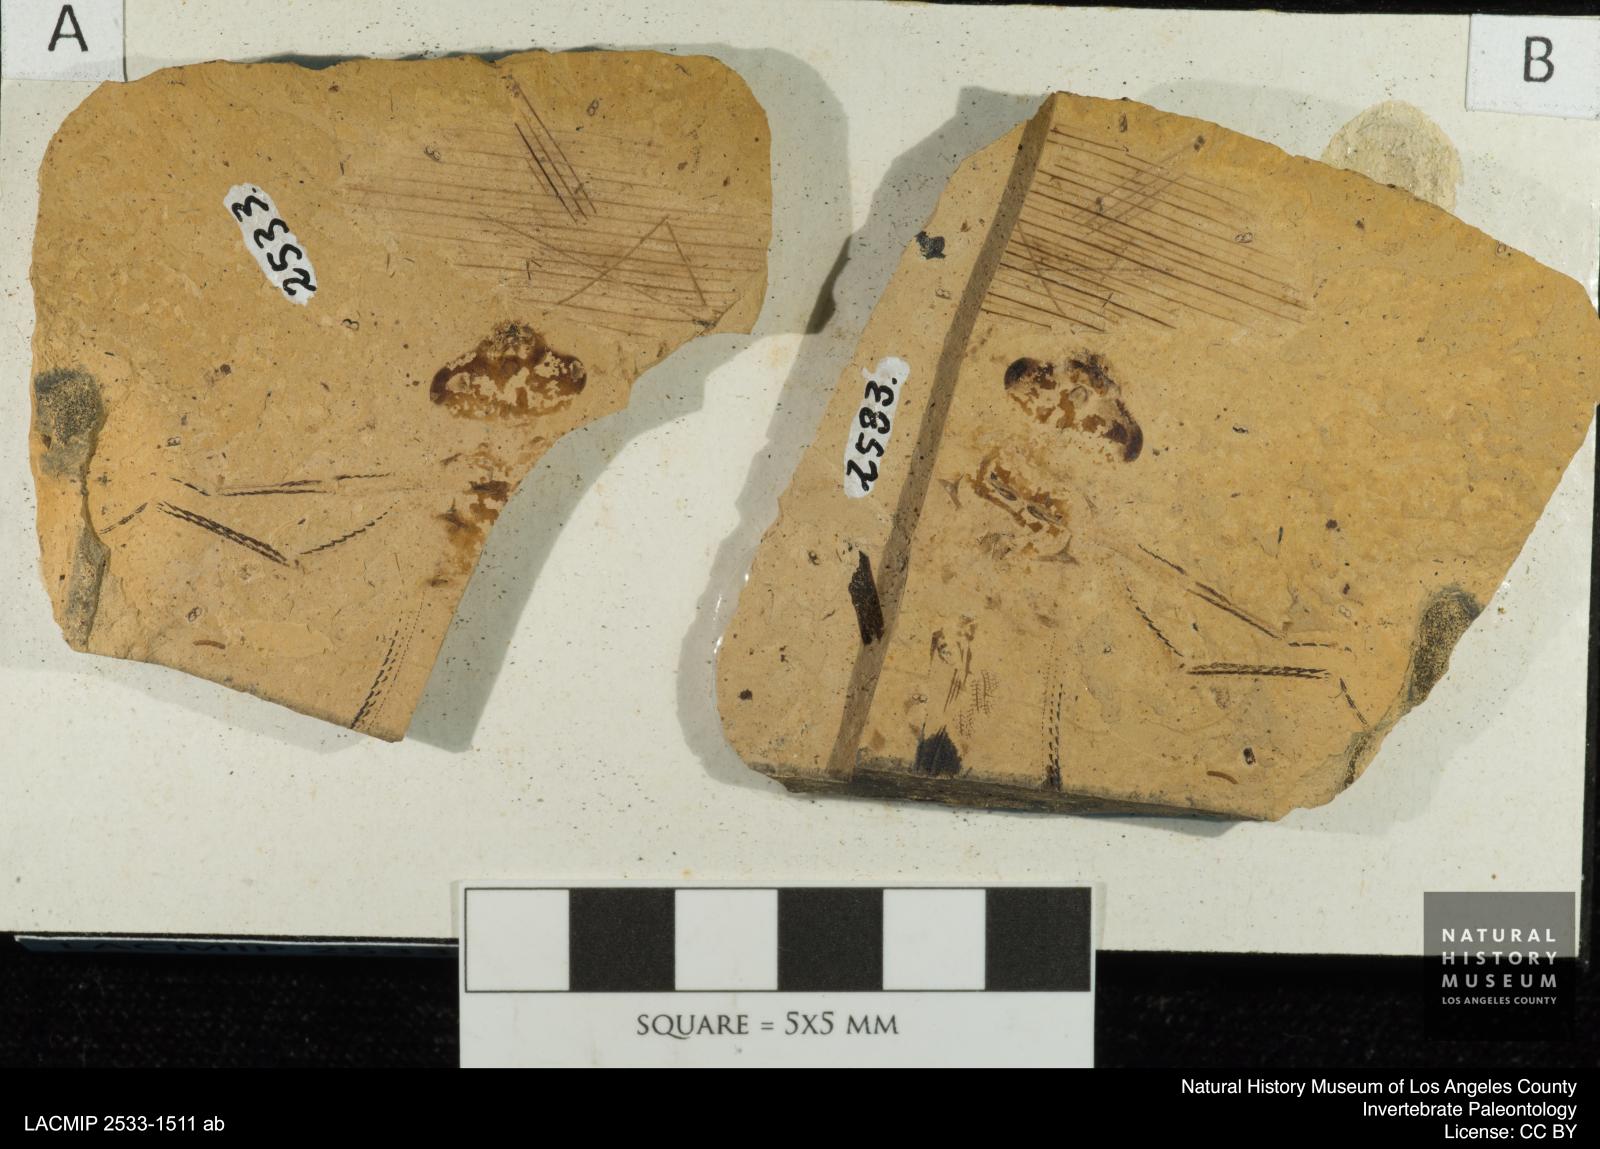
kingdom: Animalia
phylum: Arthropoda
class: Insecta
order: Odonata
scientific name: Odonata
